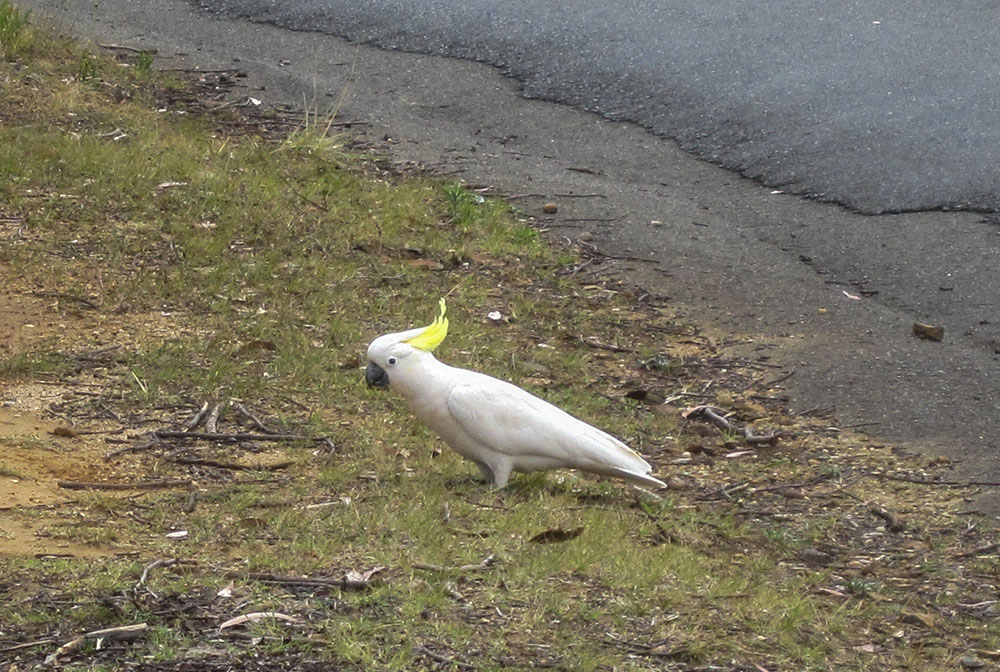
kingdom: Animalia
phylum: Chordata
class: Aves
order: Psittaciformes
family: Psittacidae
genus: Cacatua
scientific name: Cacatua galerita
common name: Sulphur-crested cockatoo
